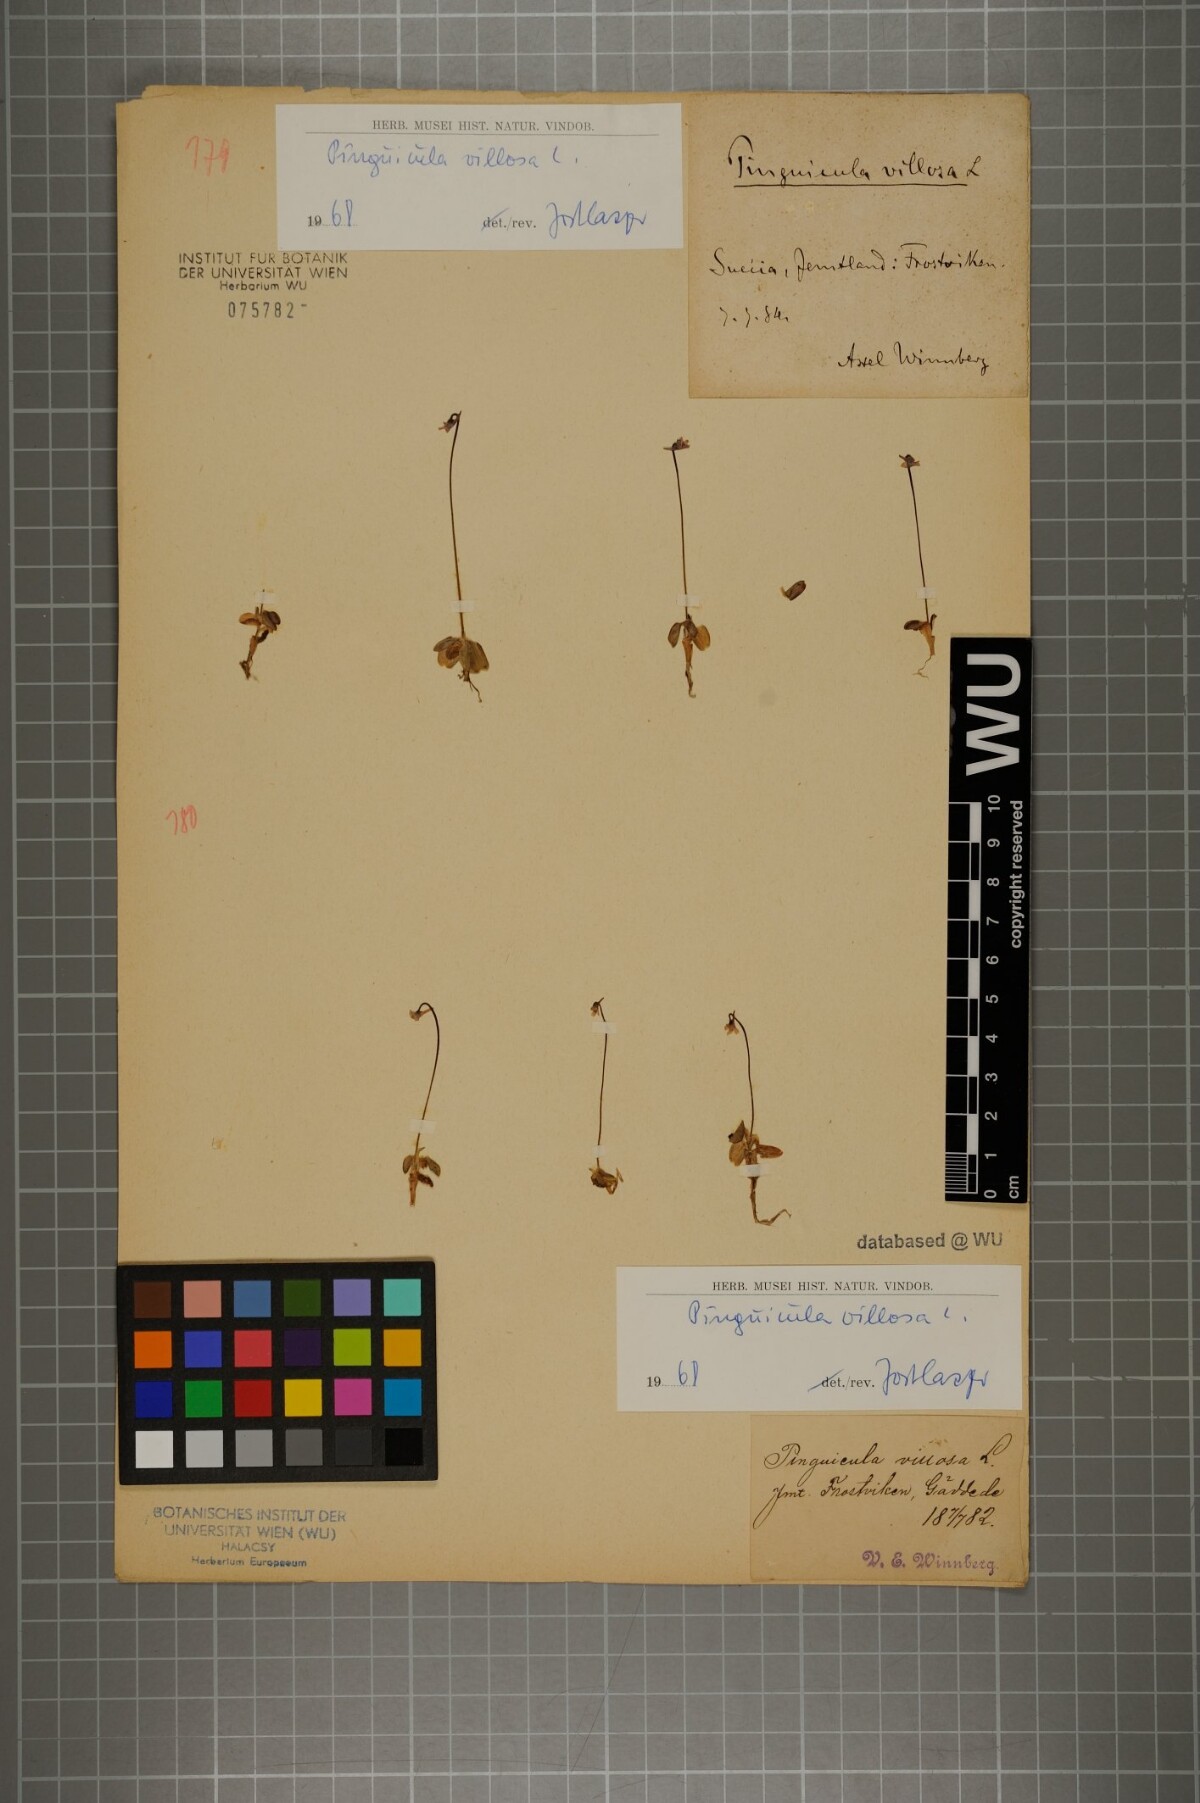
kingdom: Plantae
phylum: Tracheophyta
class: Magnoliopsida
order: Lamiales
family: Lentibulariaceae
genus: Pinguicula
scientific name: Pinguicula villosa
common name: Hairy butterwort
